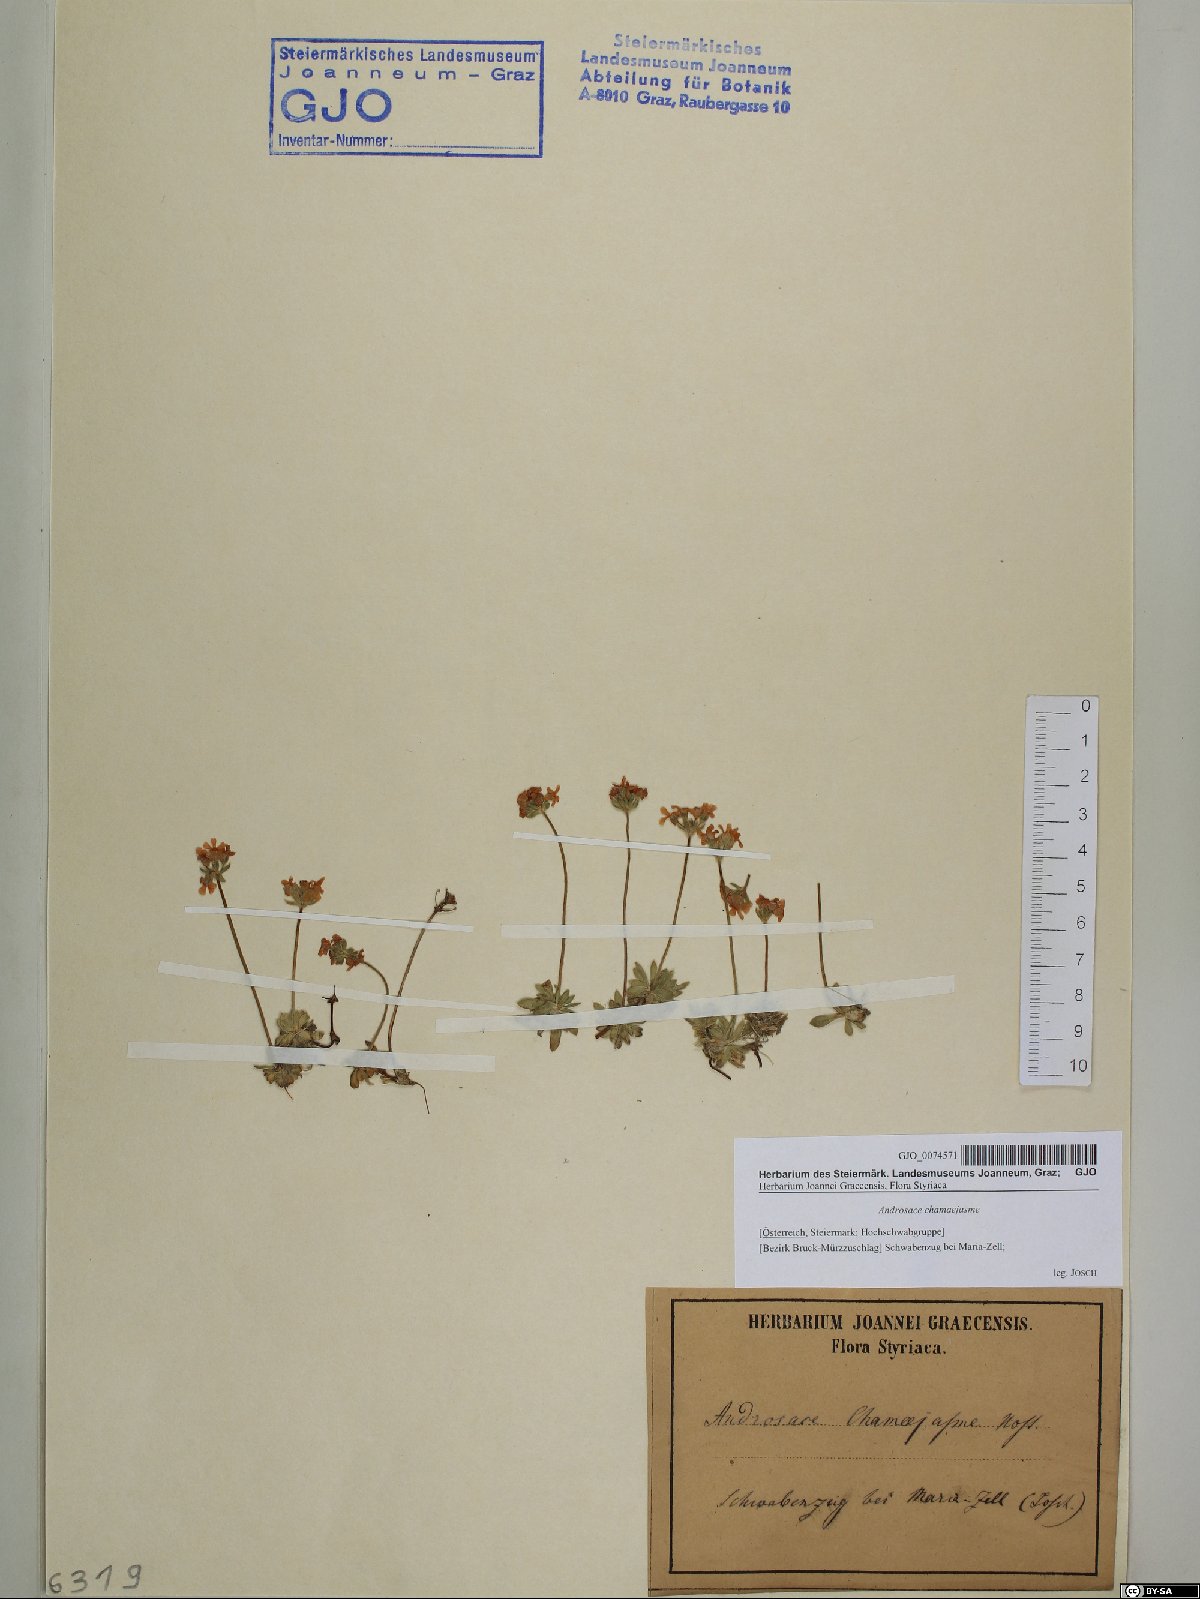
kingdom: Plantae
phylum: Tracheophyta
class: Magnoliopsida
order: Ericales
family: Primulaceae
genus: Androsace
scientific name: Androsace chamaejasme
